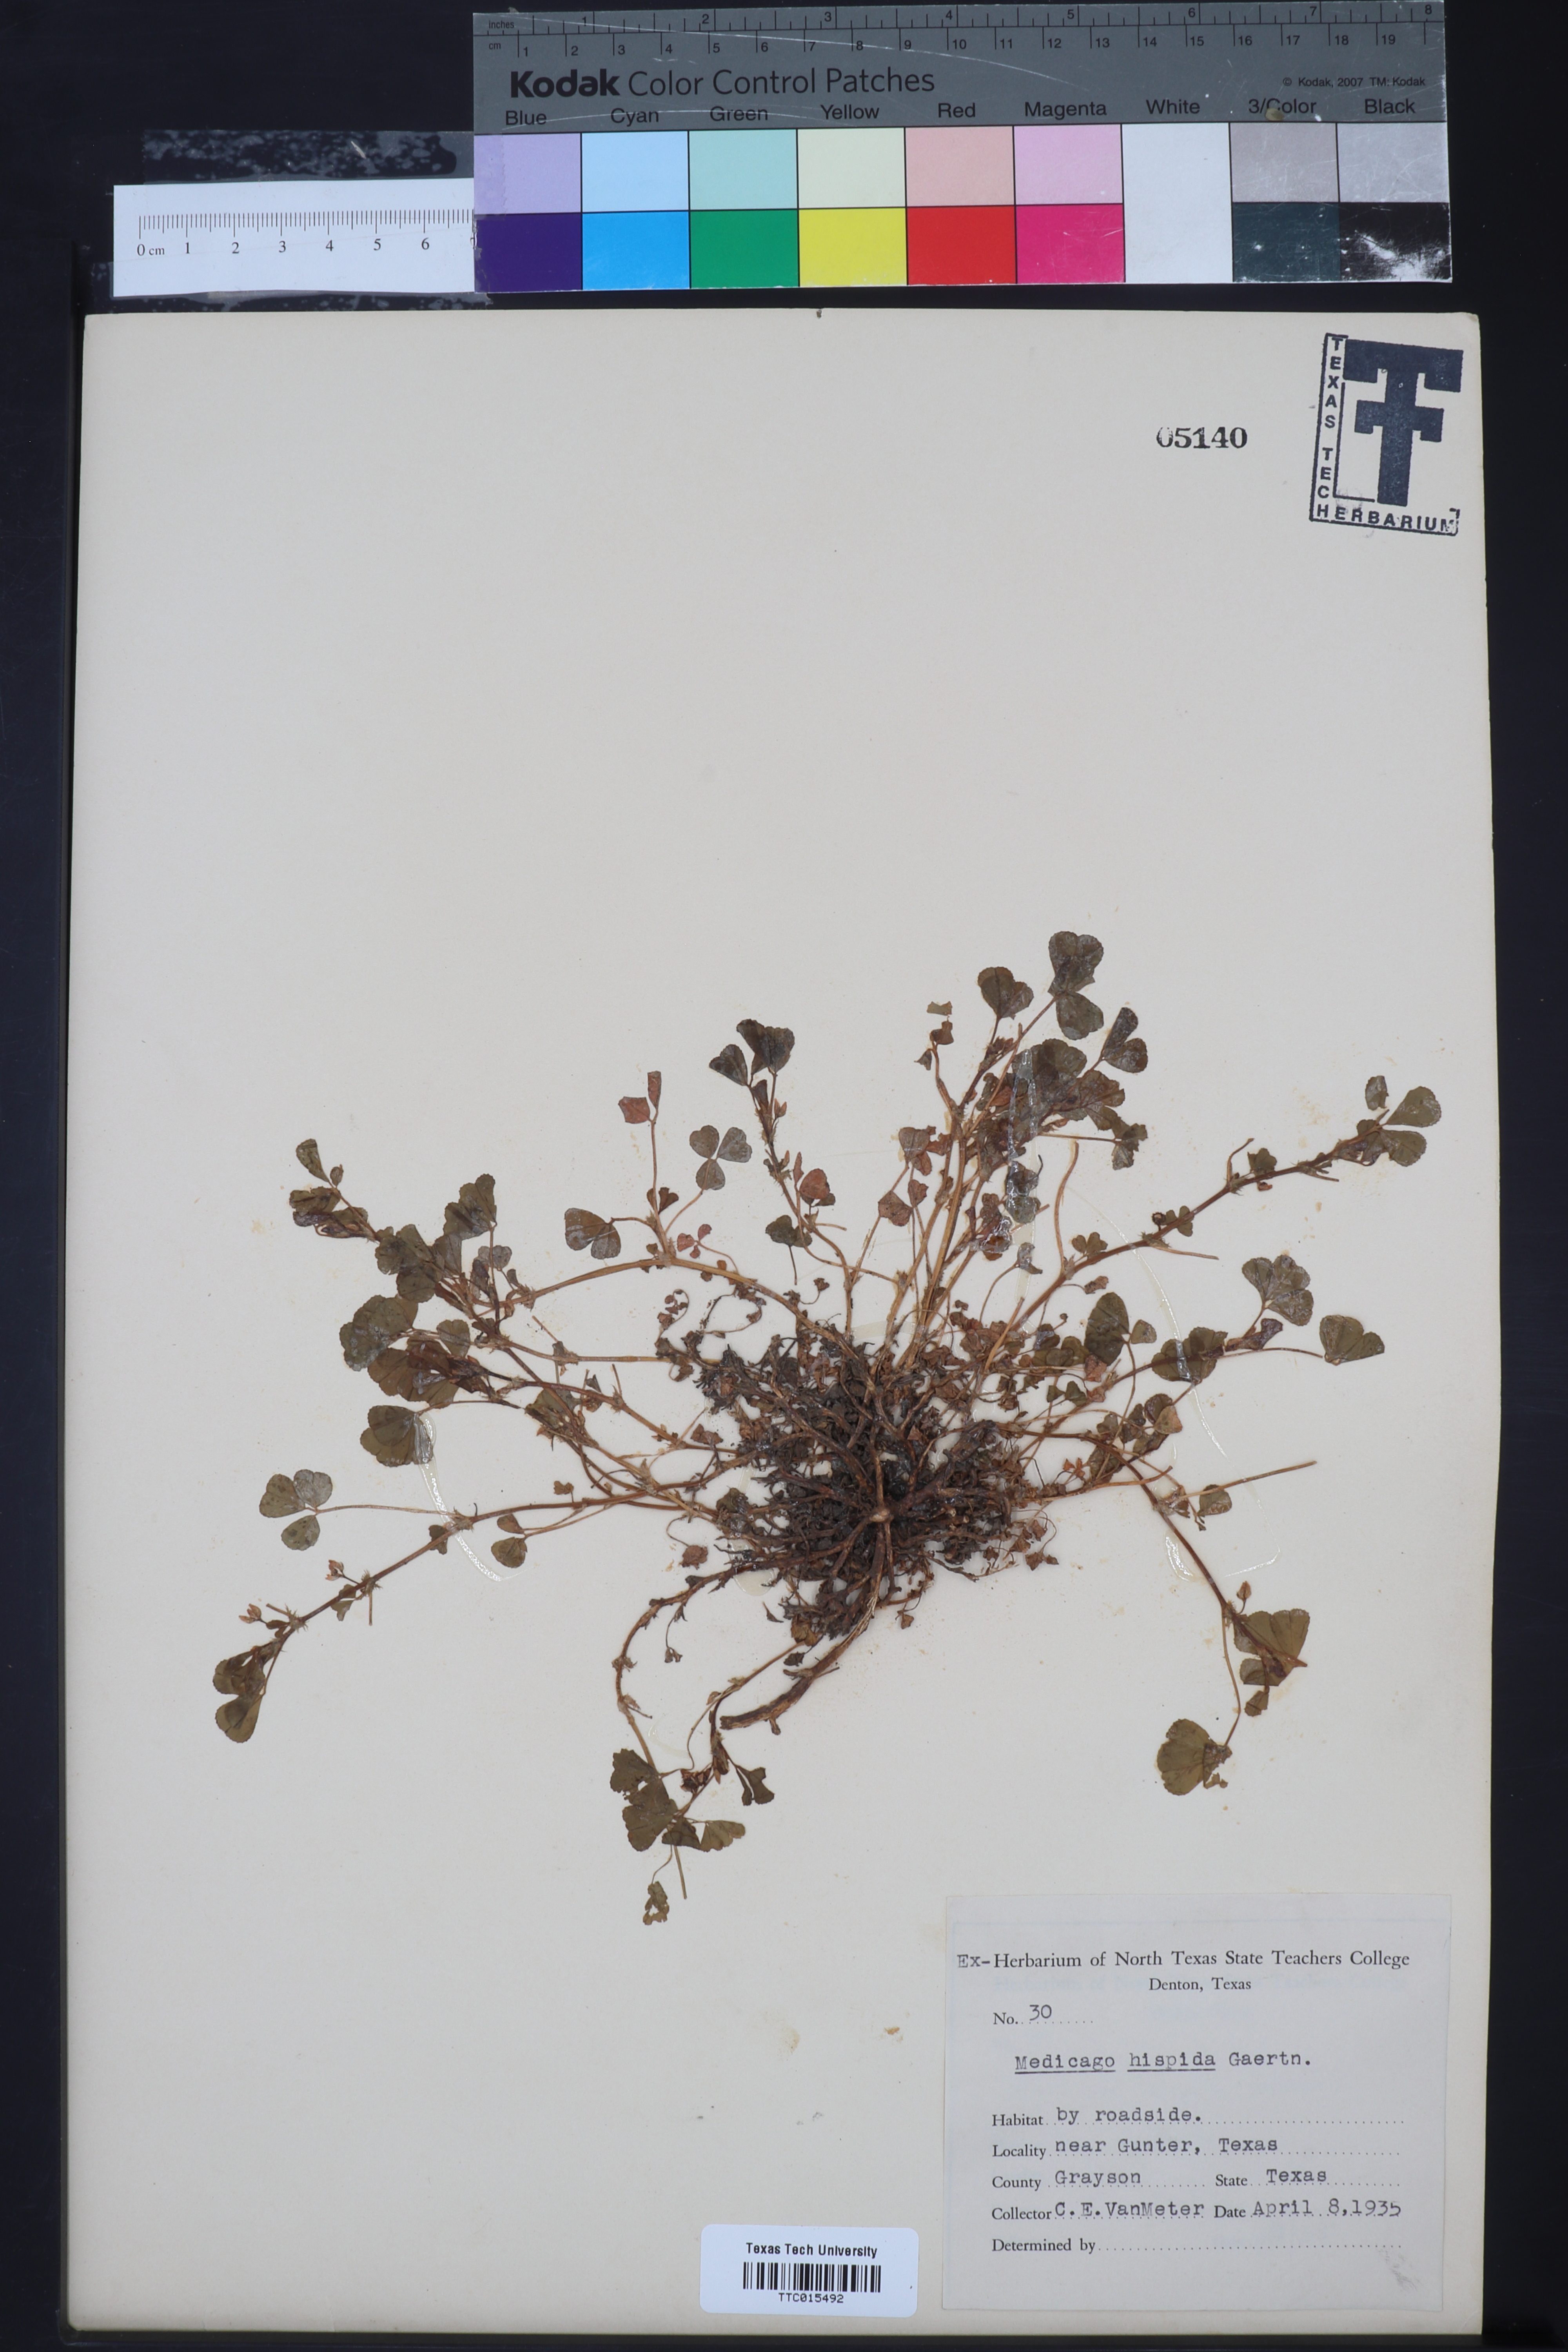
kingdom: Plantae
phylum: Tracheophyta
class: Magnoliopsida
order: Fabales
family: Fabaceae
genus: Medicago
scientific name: Medicago polymorpha
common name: Burclover
